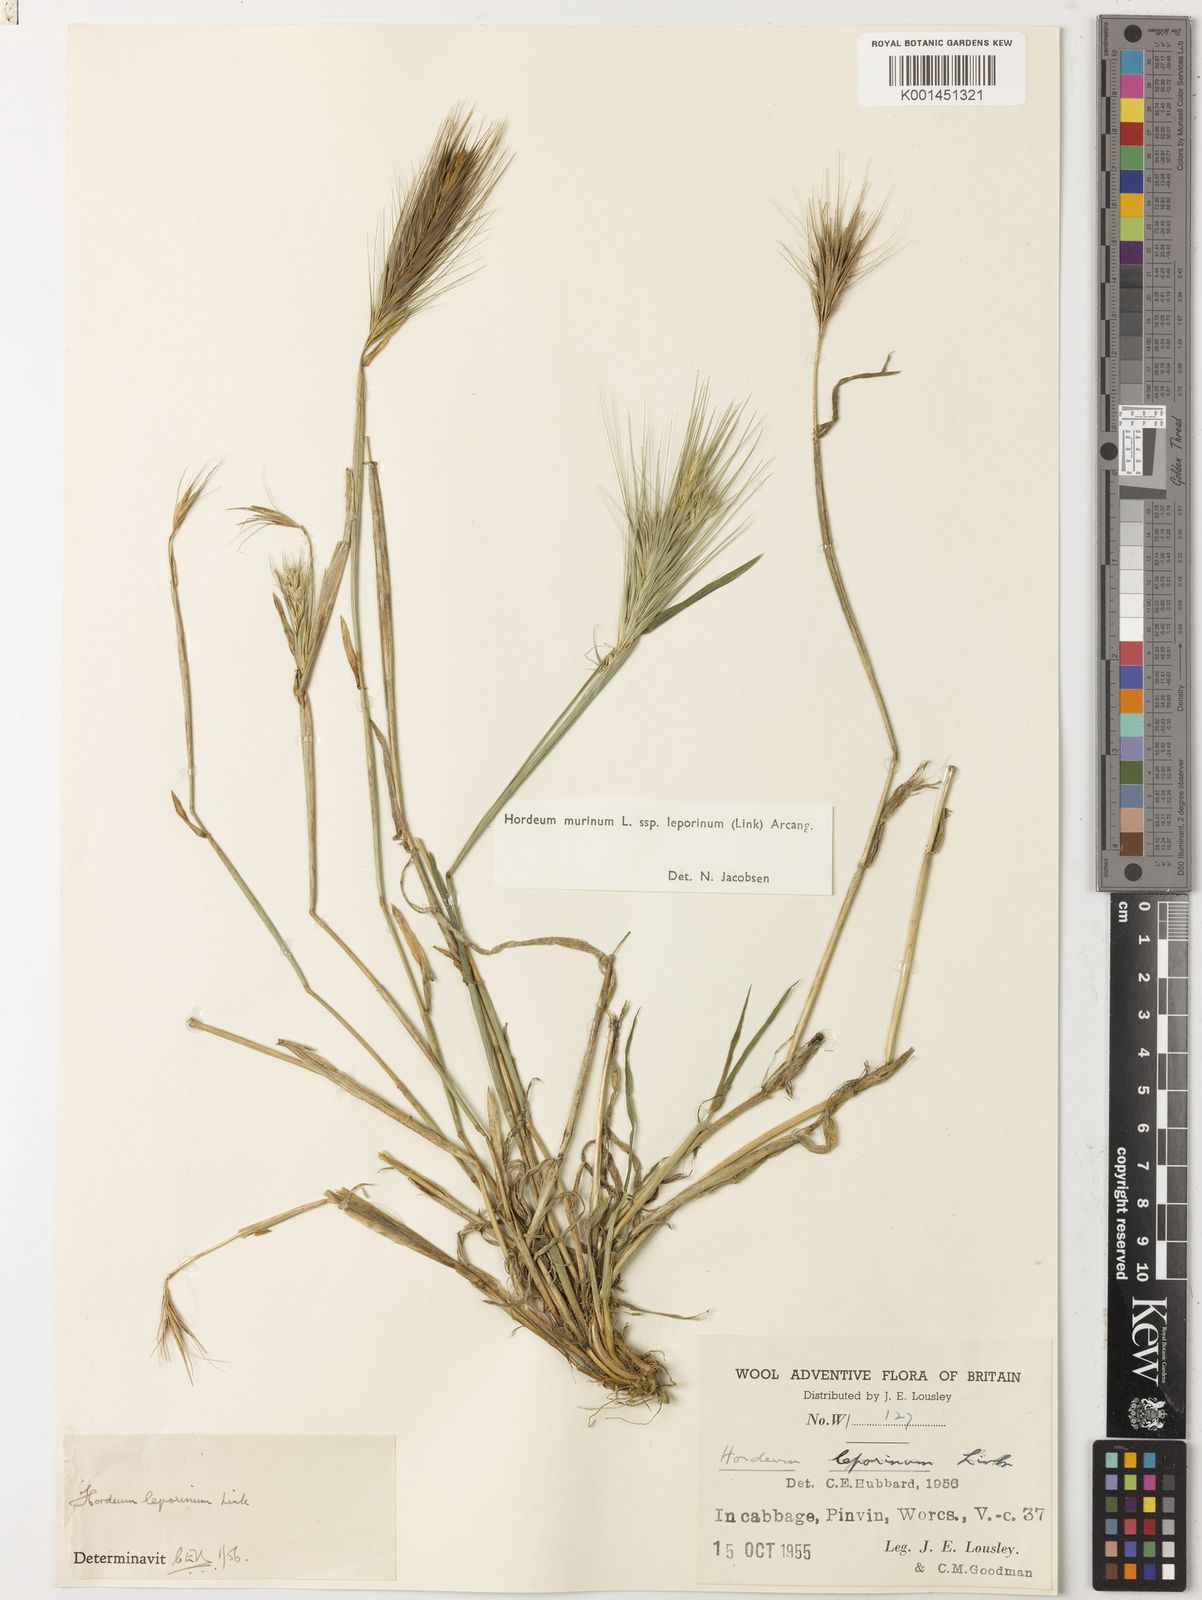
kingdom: Plantae
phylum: Tracheophyta
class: Liliopsida
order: Poales
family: Poaceae
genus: Hordeum
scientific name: Hordeum murinum
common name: Wall barley
